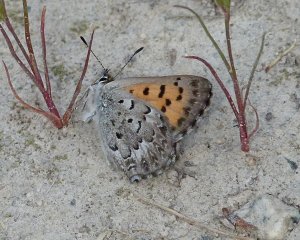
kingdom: Animalia
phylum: Arthropoda
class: Insecta
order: Lepidoptera
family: Lycaenidae
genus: Lycaena
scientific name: Lycaena mariposa
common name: Mariposa Copper
